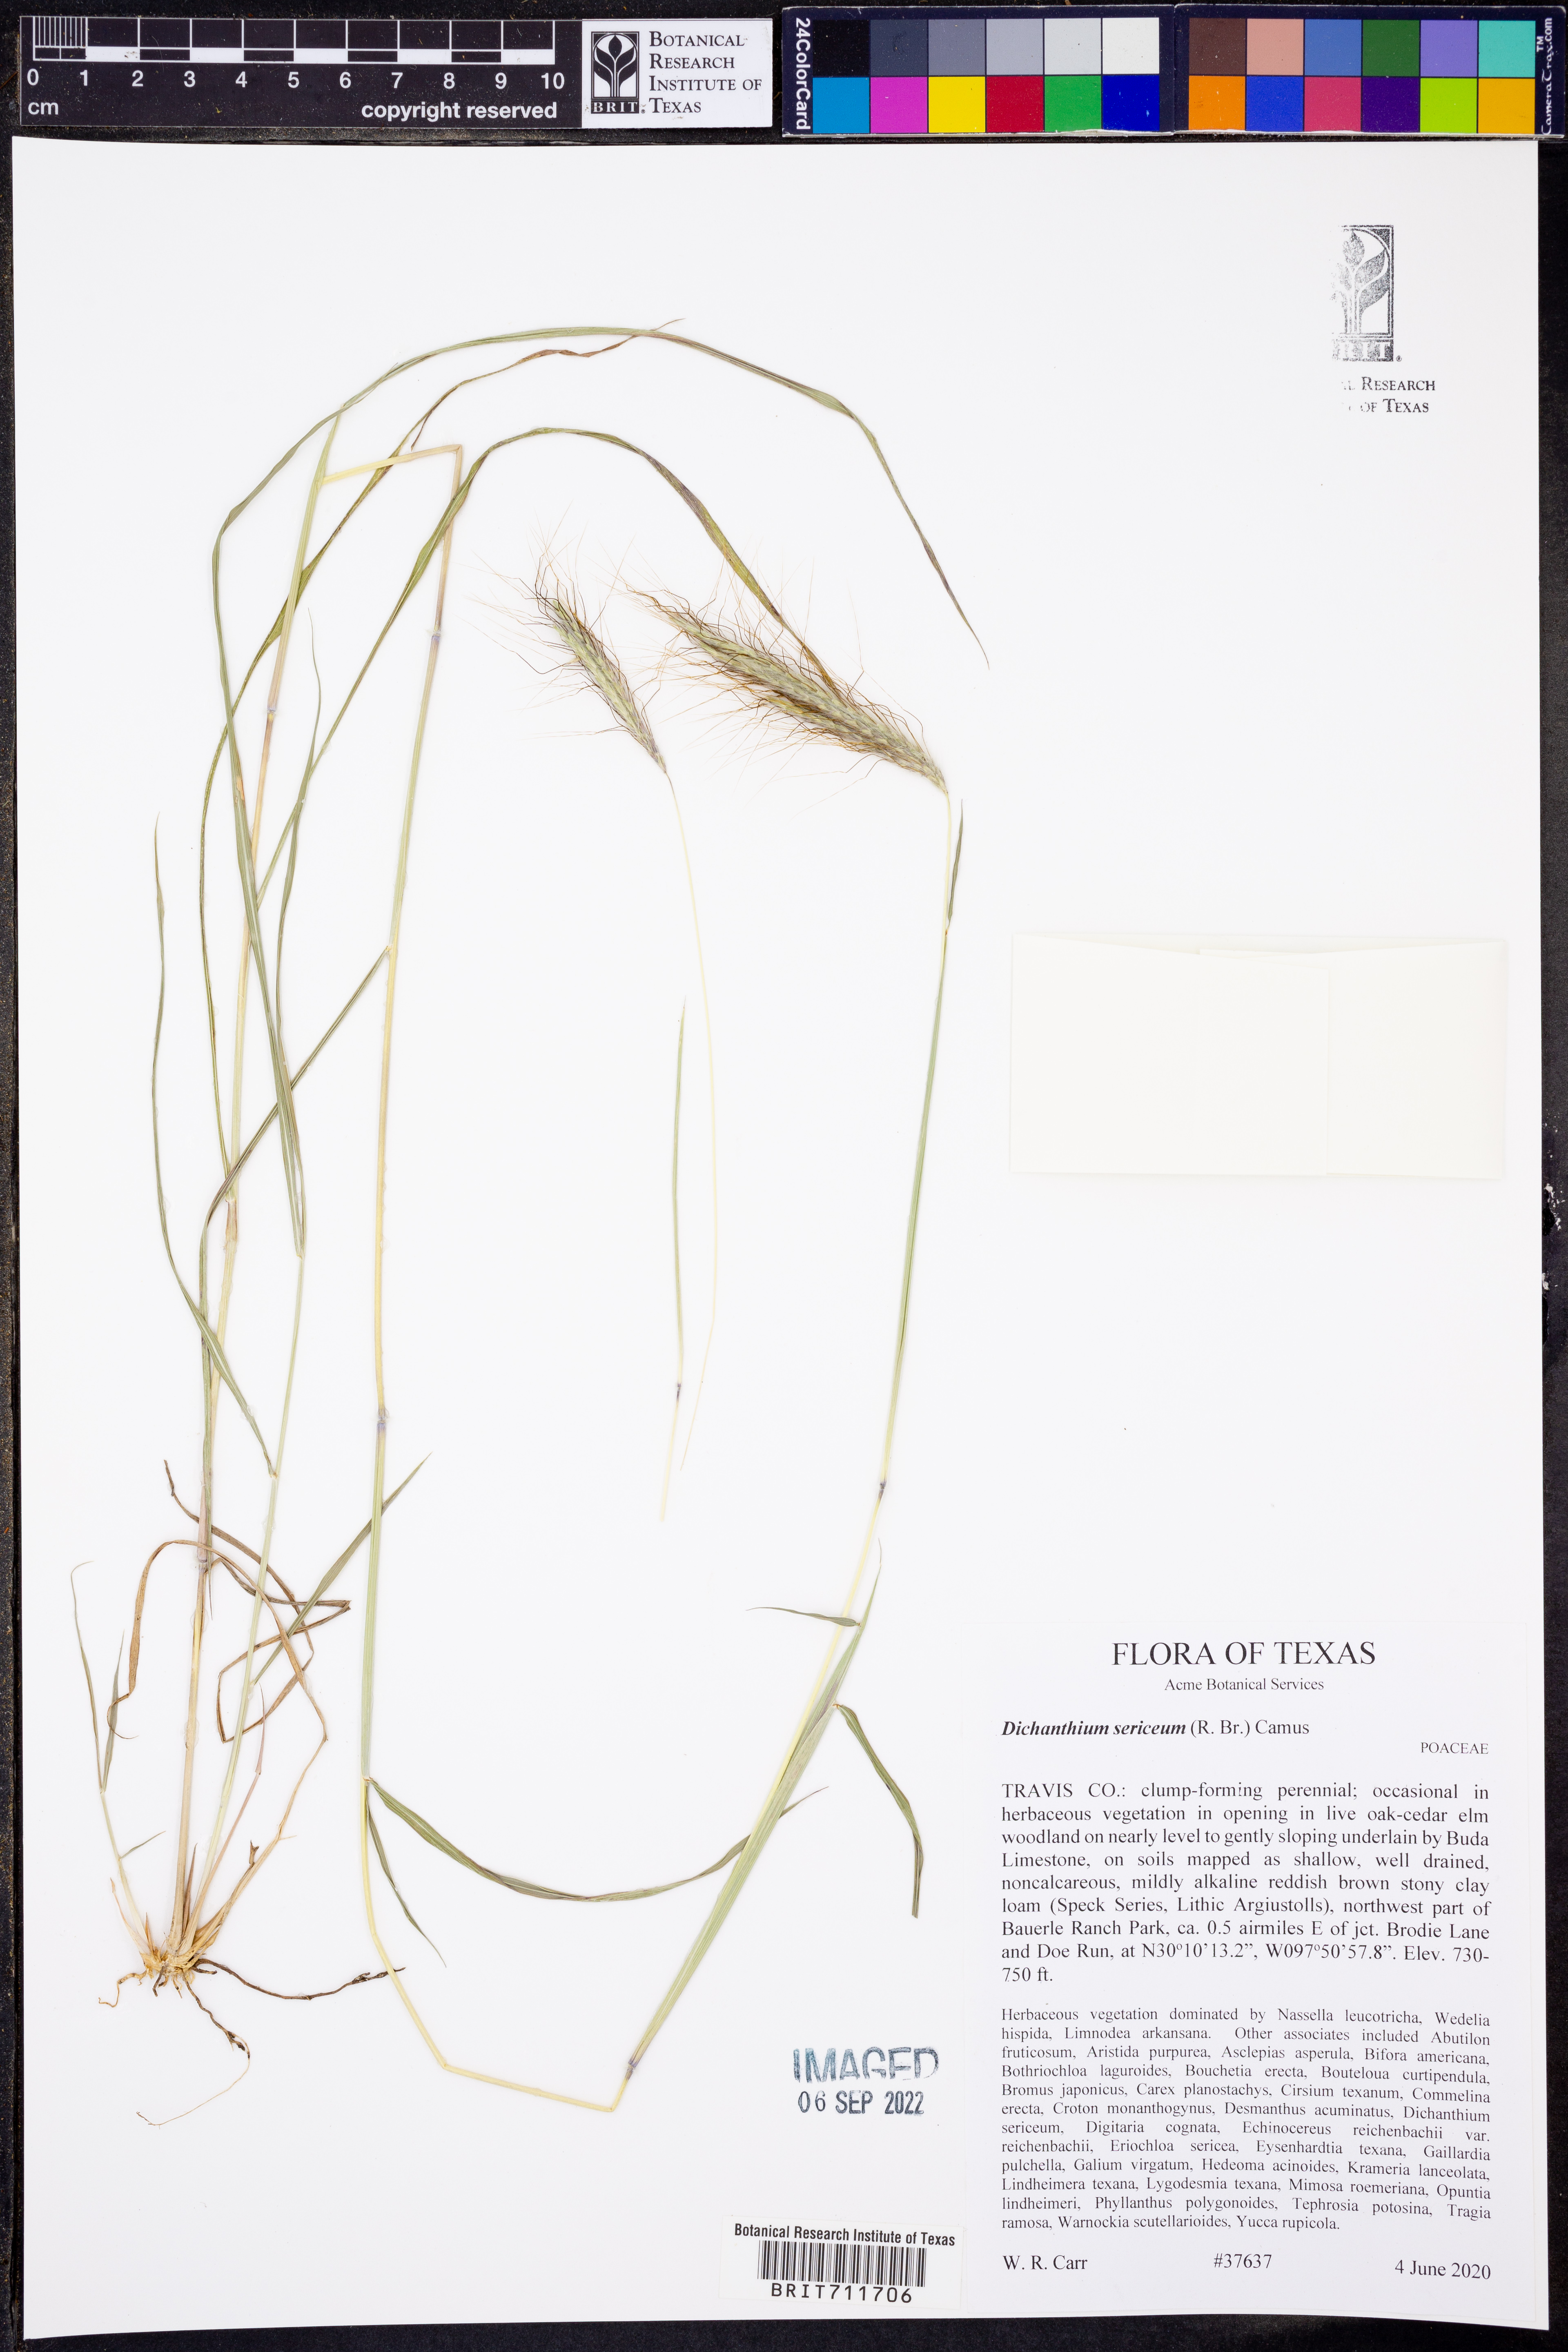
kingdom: Plantae
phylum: Tracheophyta
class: Liliopsida
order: Poales
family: Poaceae
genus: Dichanthium
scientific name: Dichanthium sericeum
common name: Silky bluestem
